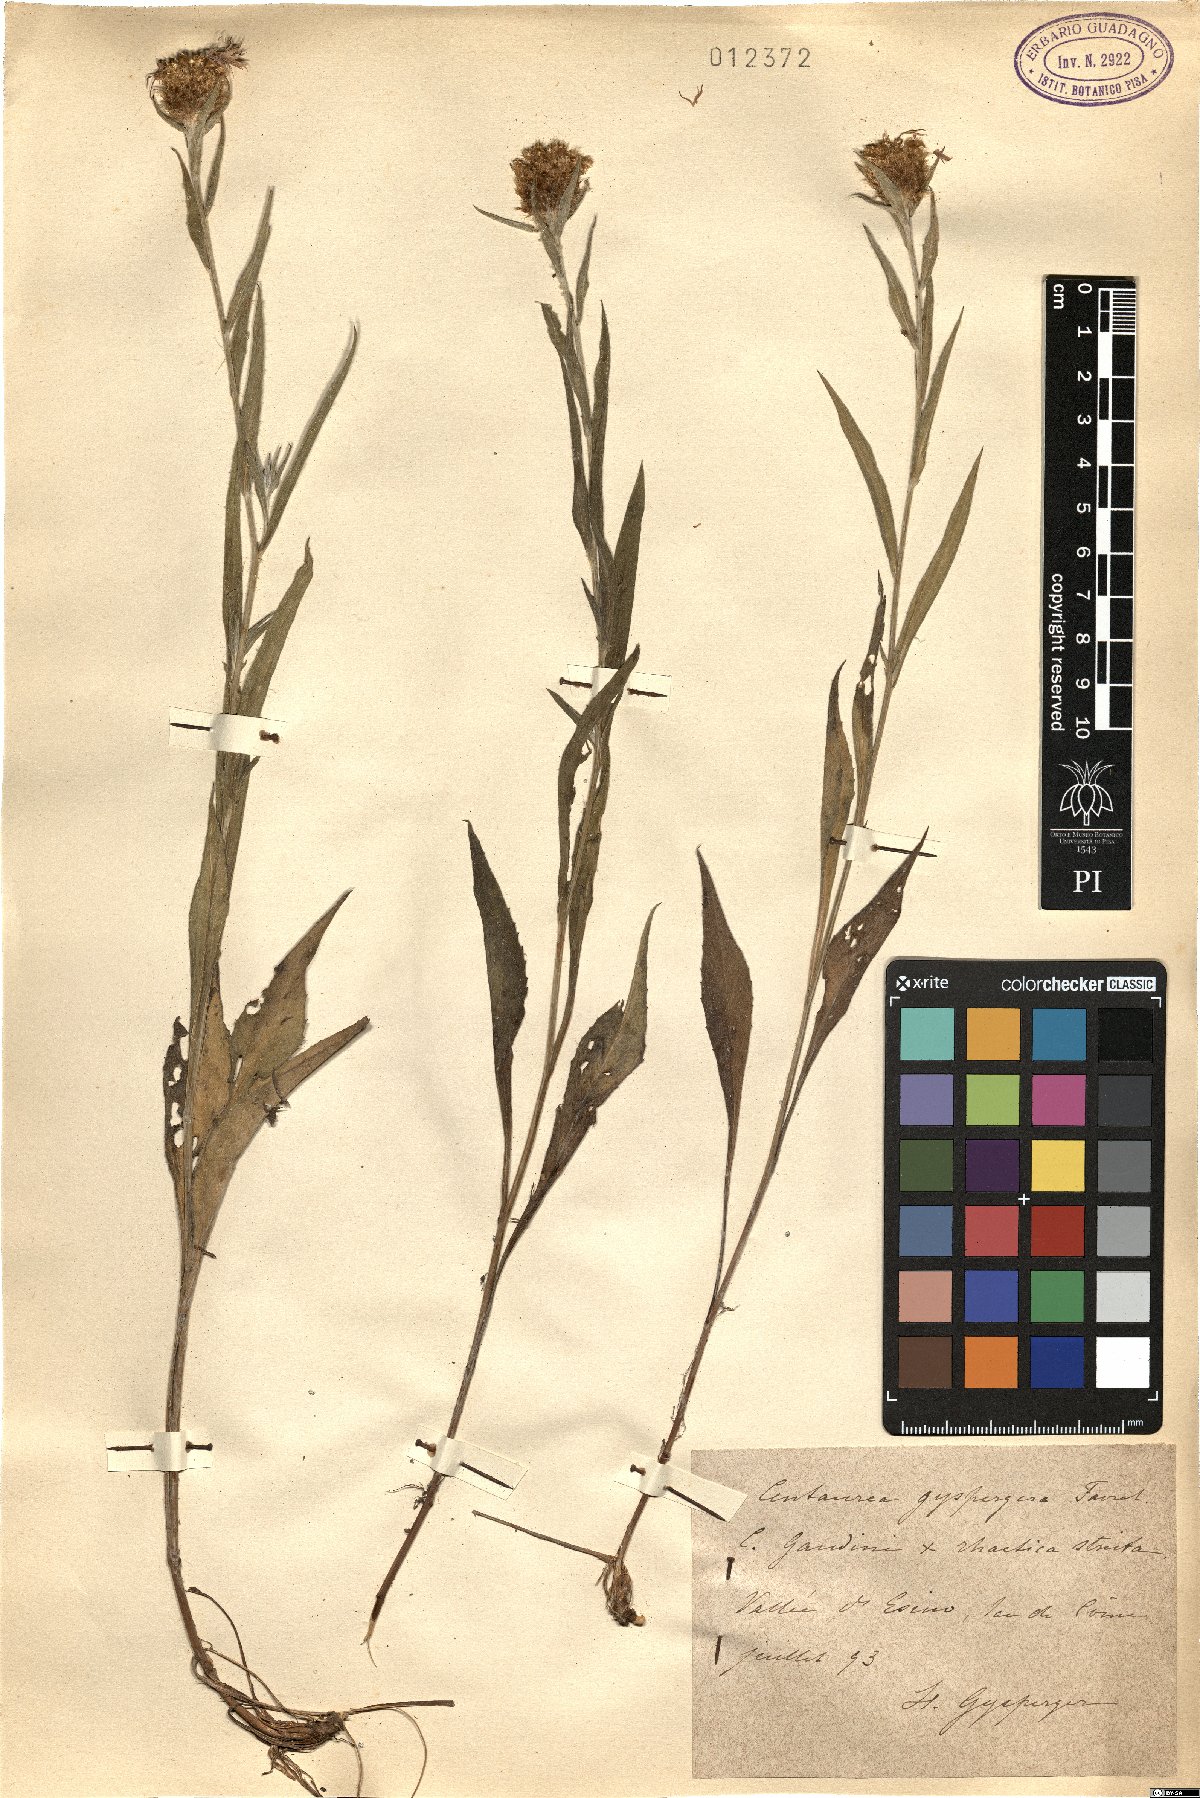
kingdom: Plantae
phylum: Tracheophyta
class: Magnoliopsida
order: Asterales
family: Asteraceae
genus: Centaurea
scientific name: Centaurea gyrspergerae
